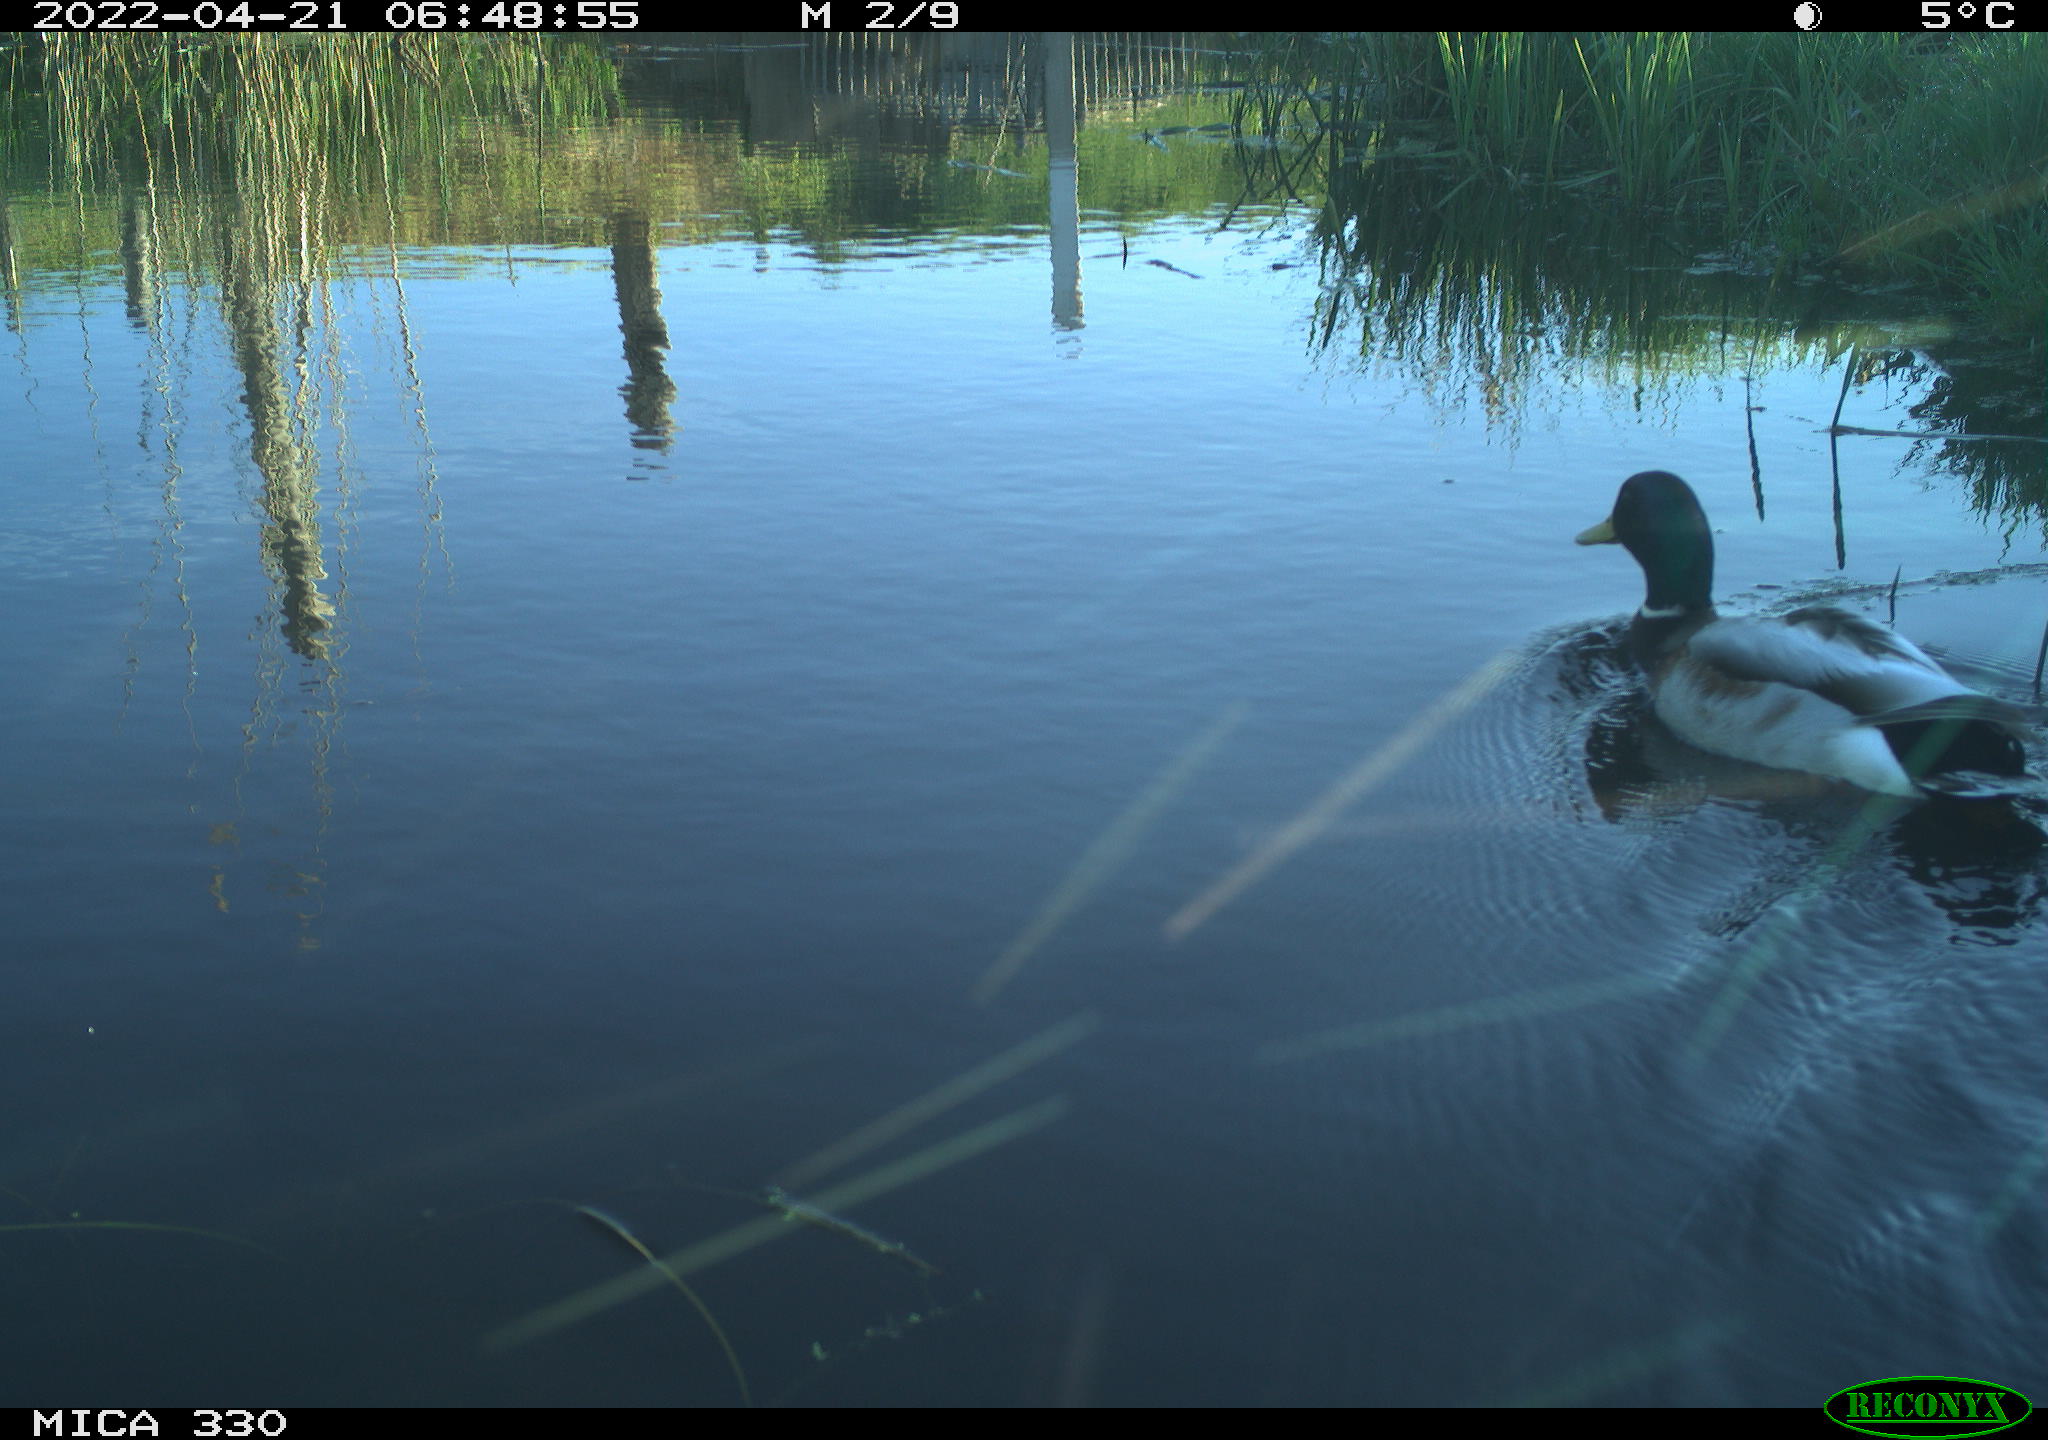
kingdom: Animalia
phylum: Chordata
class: Aves
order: Anseriformes
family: Anatidae
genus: Anas
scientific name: Anas platyrhynchos
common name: Mallard
